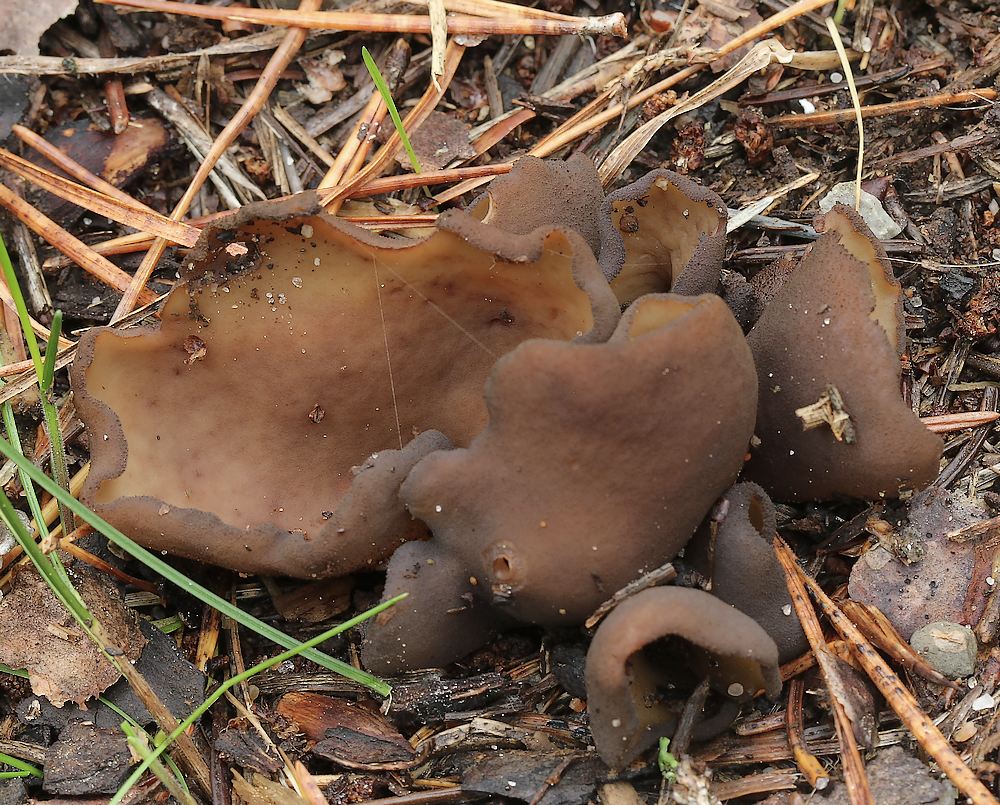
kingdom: Fungi
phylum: Ascomycota
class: Pezizomycetes
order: Pezizales
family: Otideaceae
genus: Otidea
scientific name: Otidea bufonia
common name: brun ørebæger
